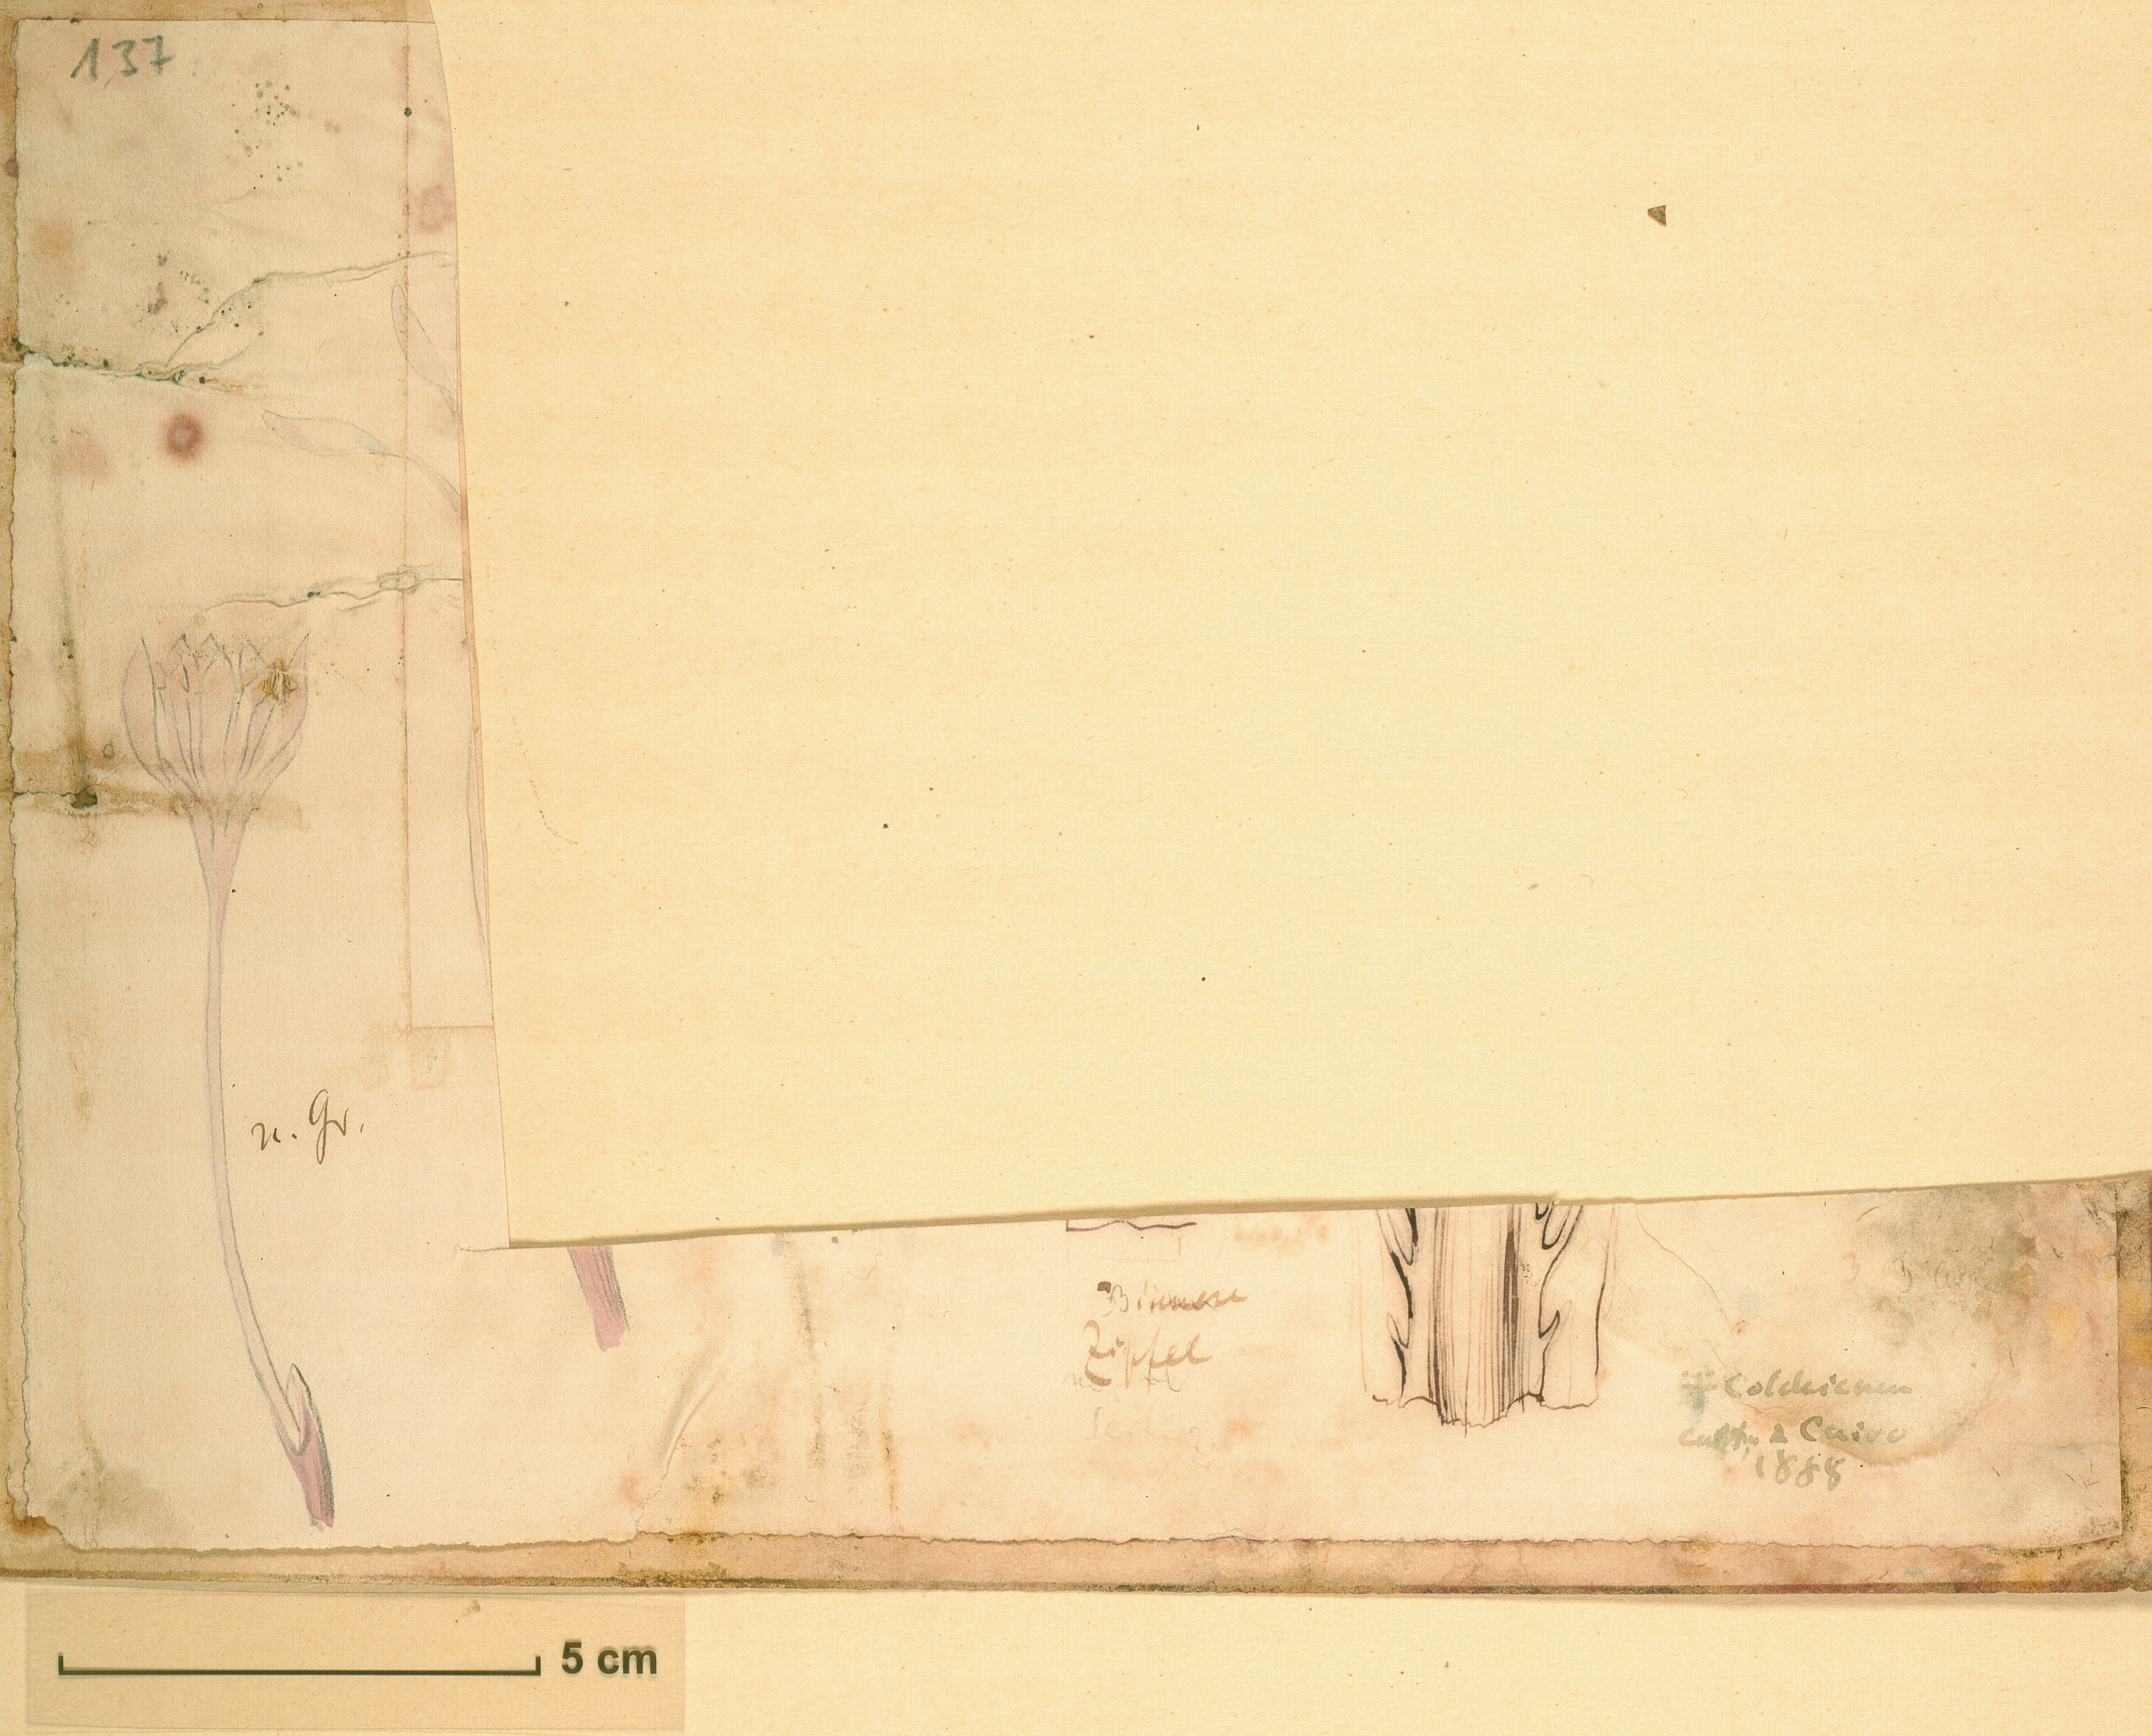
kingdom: Plantae
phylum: Tracheophyta
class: Liliopsida
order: Liliales
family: Colchicaceae
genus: Colchicum
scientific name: Colchicum
